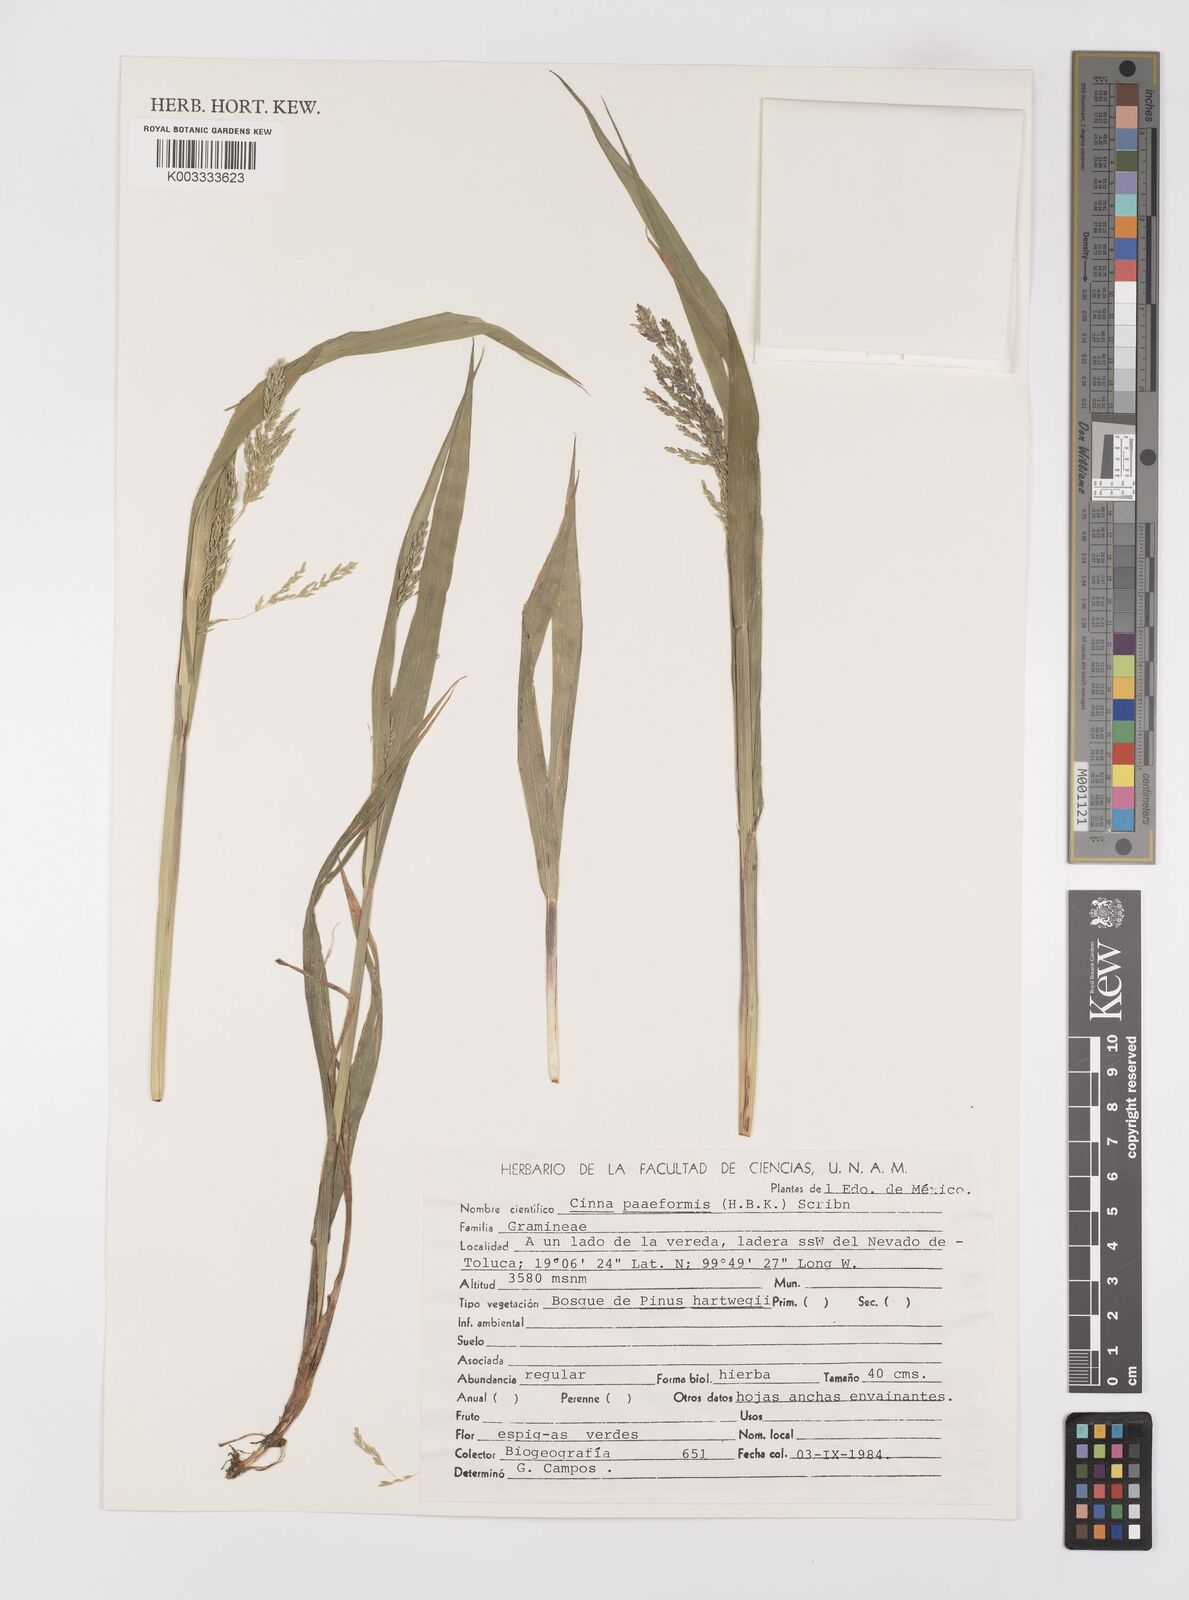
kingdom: Plantae
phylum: Tracheophyta
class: Liliopsida
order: Poales
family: Poaceae
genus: Cinnastrum
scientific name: Cinnastrum poiforme
